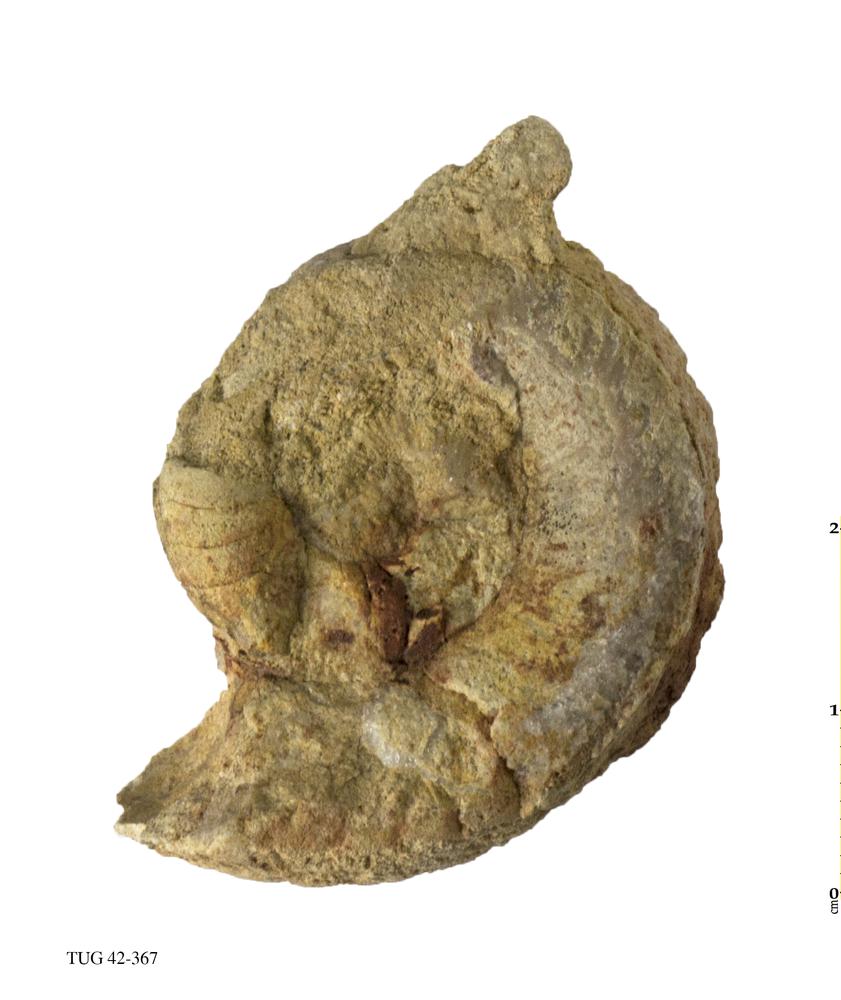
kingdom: Animalia
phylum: Mollusca
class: Cephalopoda
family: Trocholitidae
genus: Discoceras
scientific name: Discoceras Clymenia antiquissima
